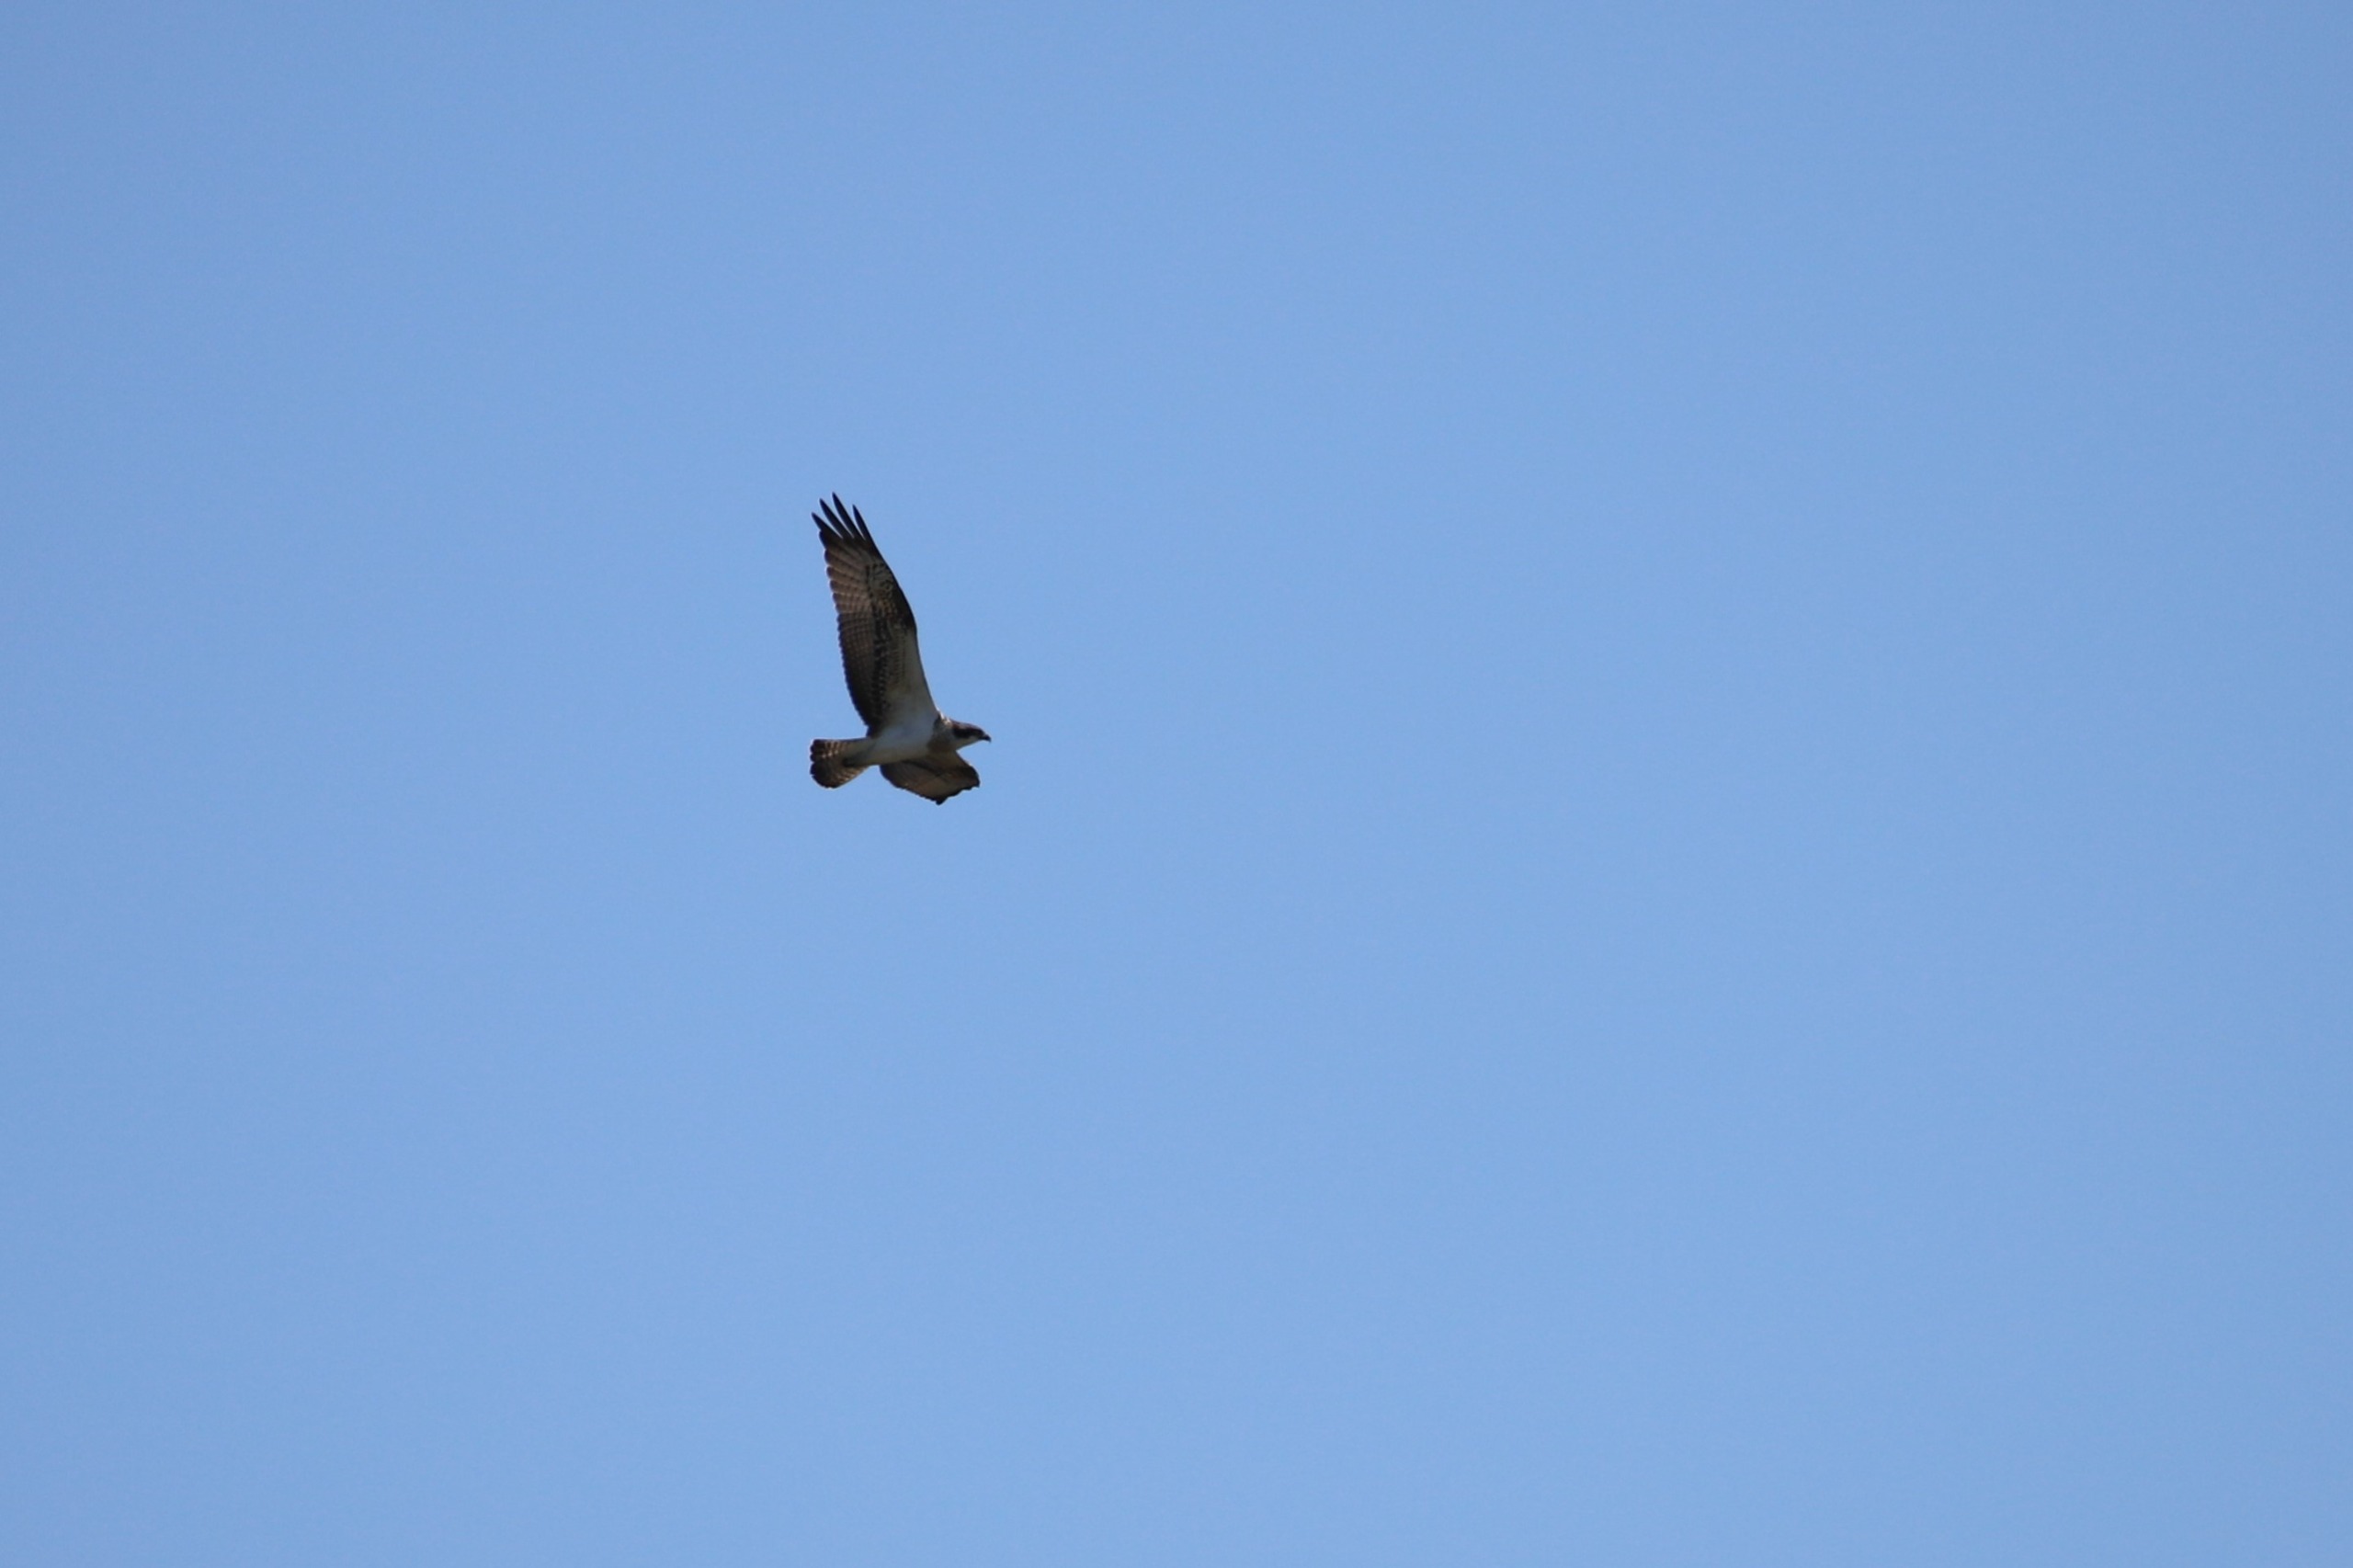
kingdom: Animalia
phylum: Chordata
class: Aves
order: Accipitriformes
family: Pandionidae
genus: Pandion
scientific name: Pandion haliaetus
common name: Fiskeørn
